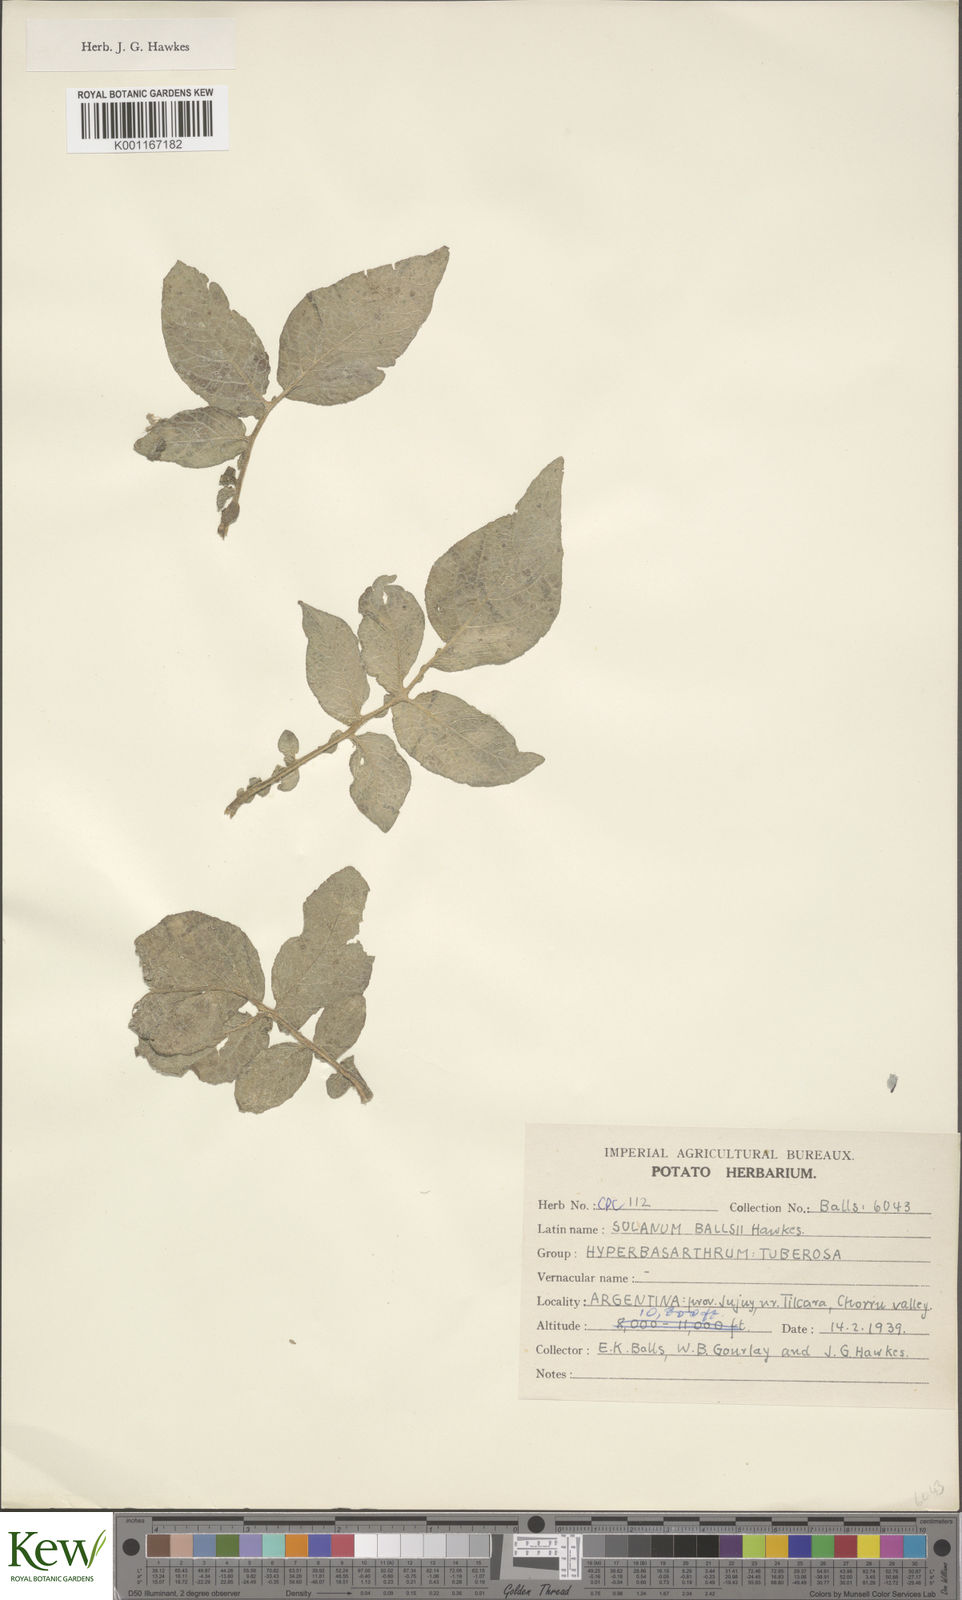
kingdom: Plantae
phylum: Tracheophyta
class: Magnoliopsida
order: Solanales
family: Solanaceae
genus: Solanum
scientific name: Solanum vernei
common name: Purple potato
